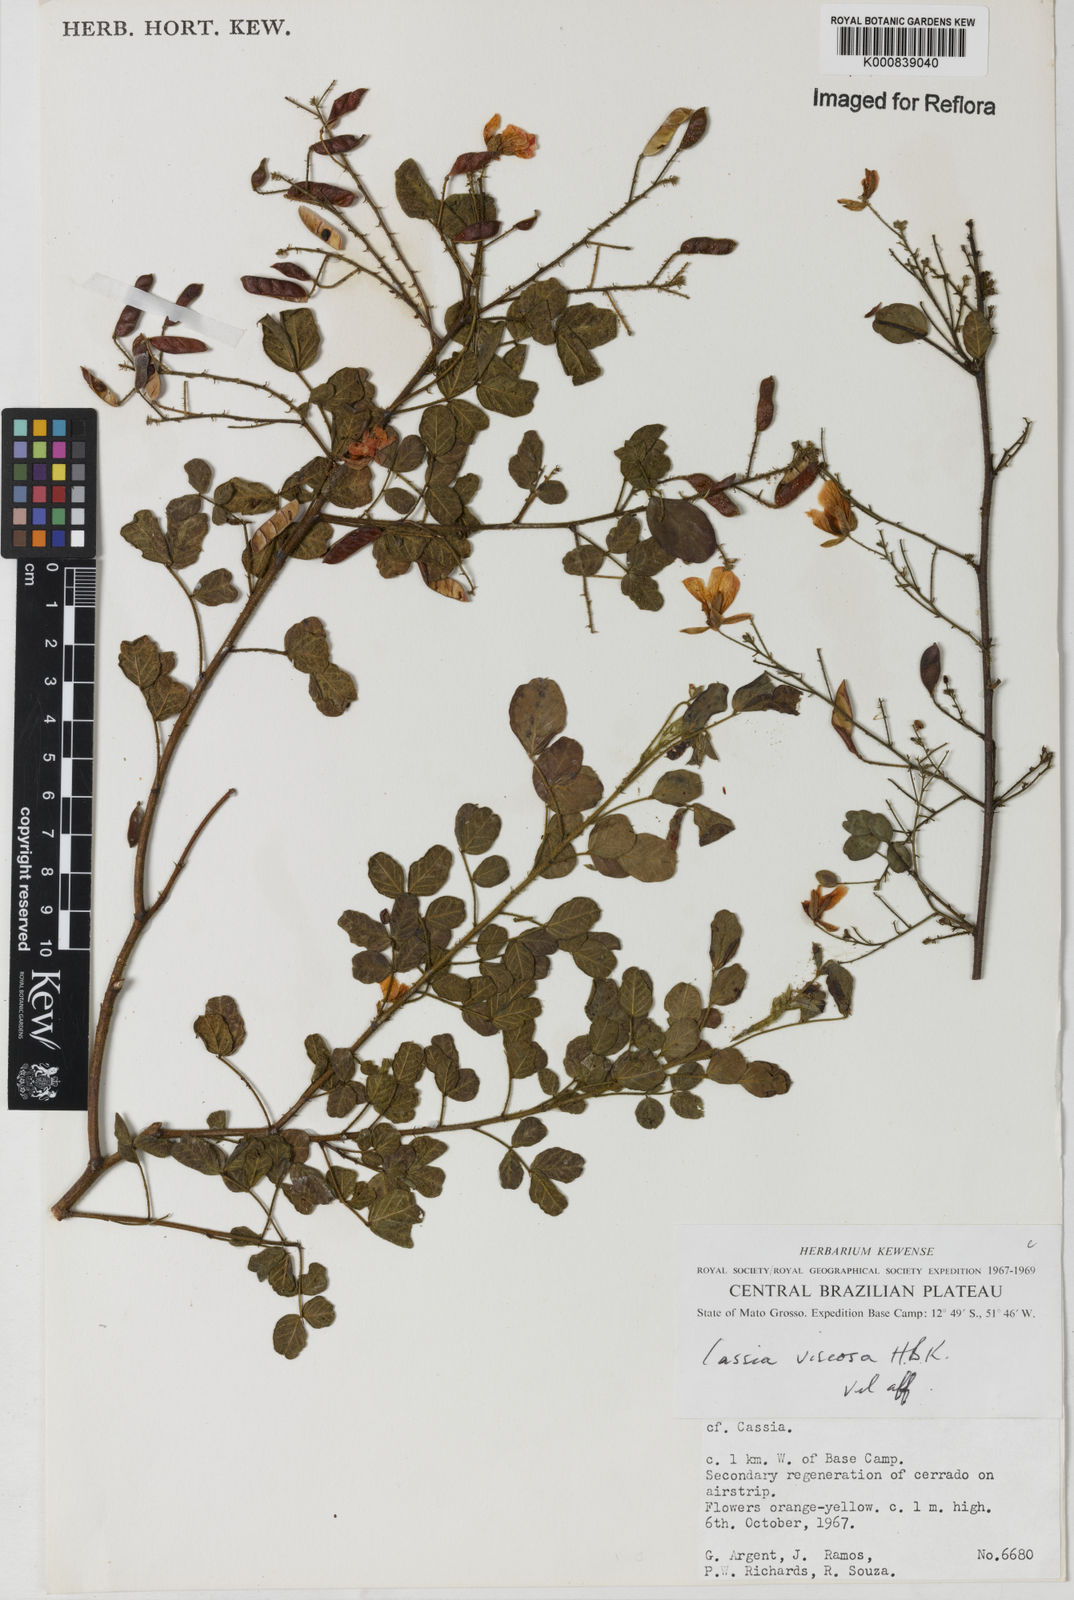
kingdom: Plantae
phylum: Tracheophyta
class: Magnoliopsida
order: Fabales
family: Fabaceae
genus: Chamaecrista
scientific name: Chamaecrista viscosa
